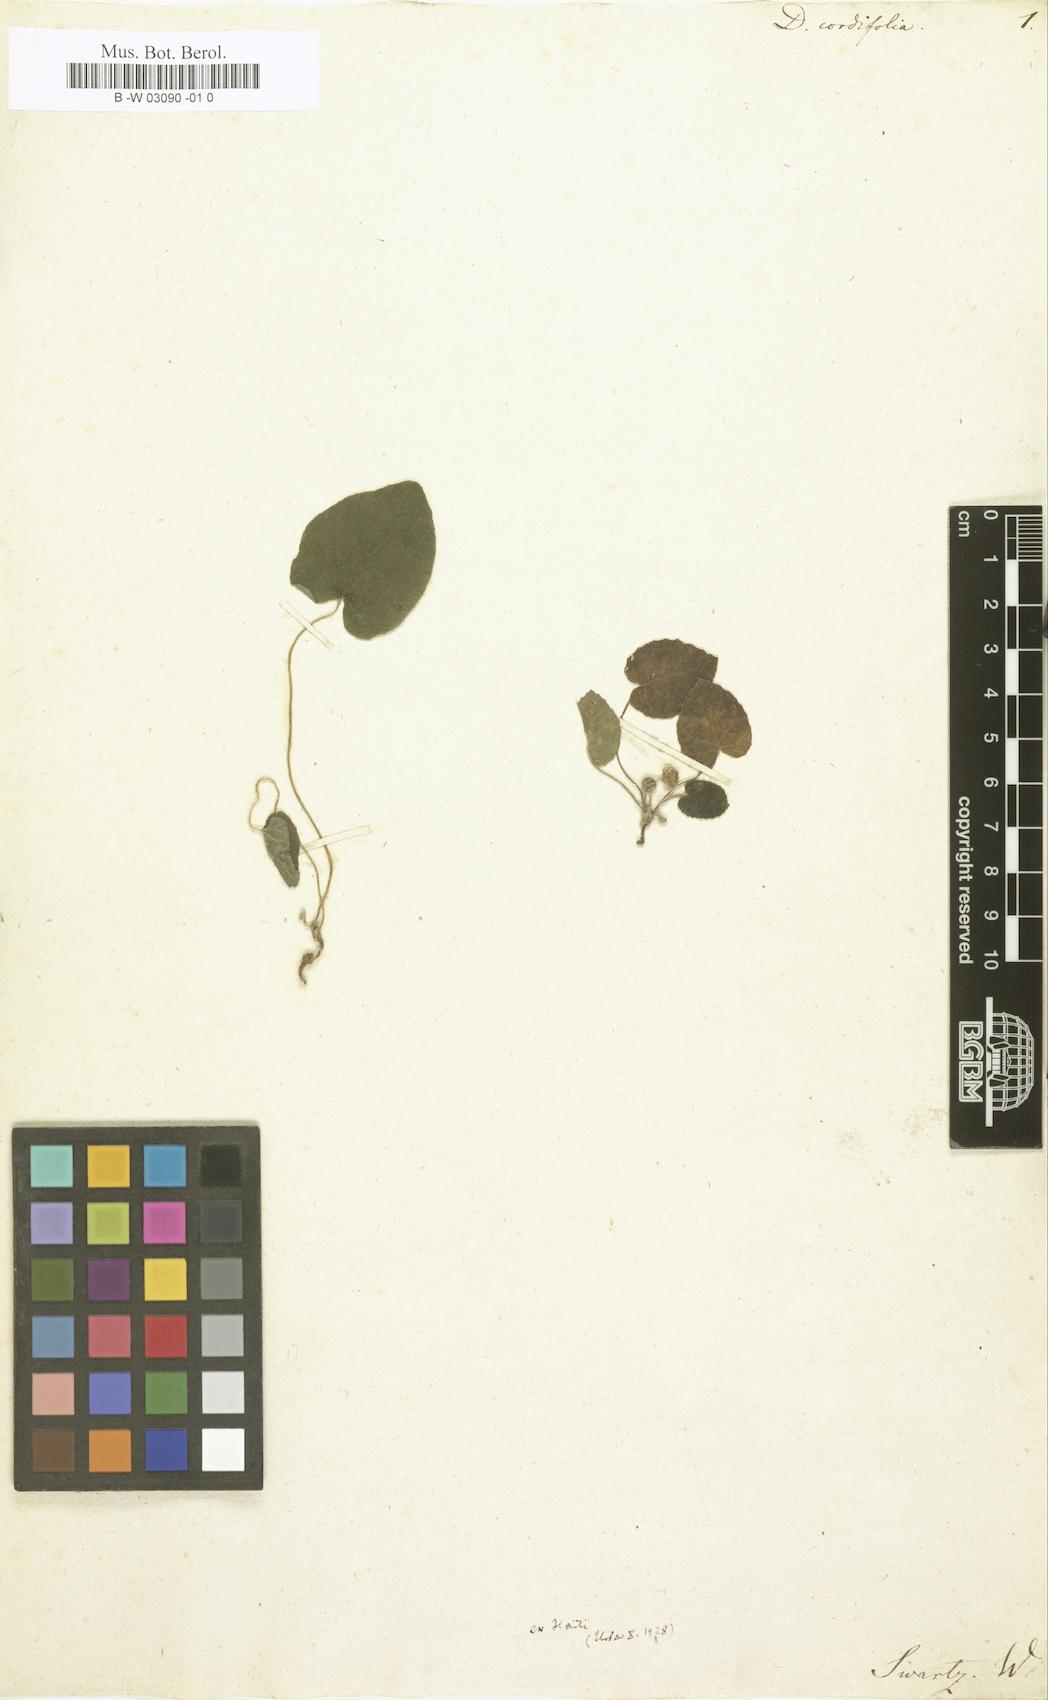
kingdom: Plantae
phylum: Tracheophyta
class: Magnoliopsida
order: Rosales
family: Moraceae
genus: Dorstenia
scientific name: Dorstenia
